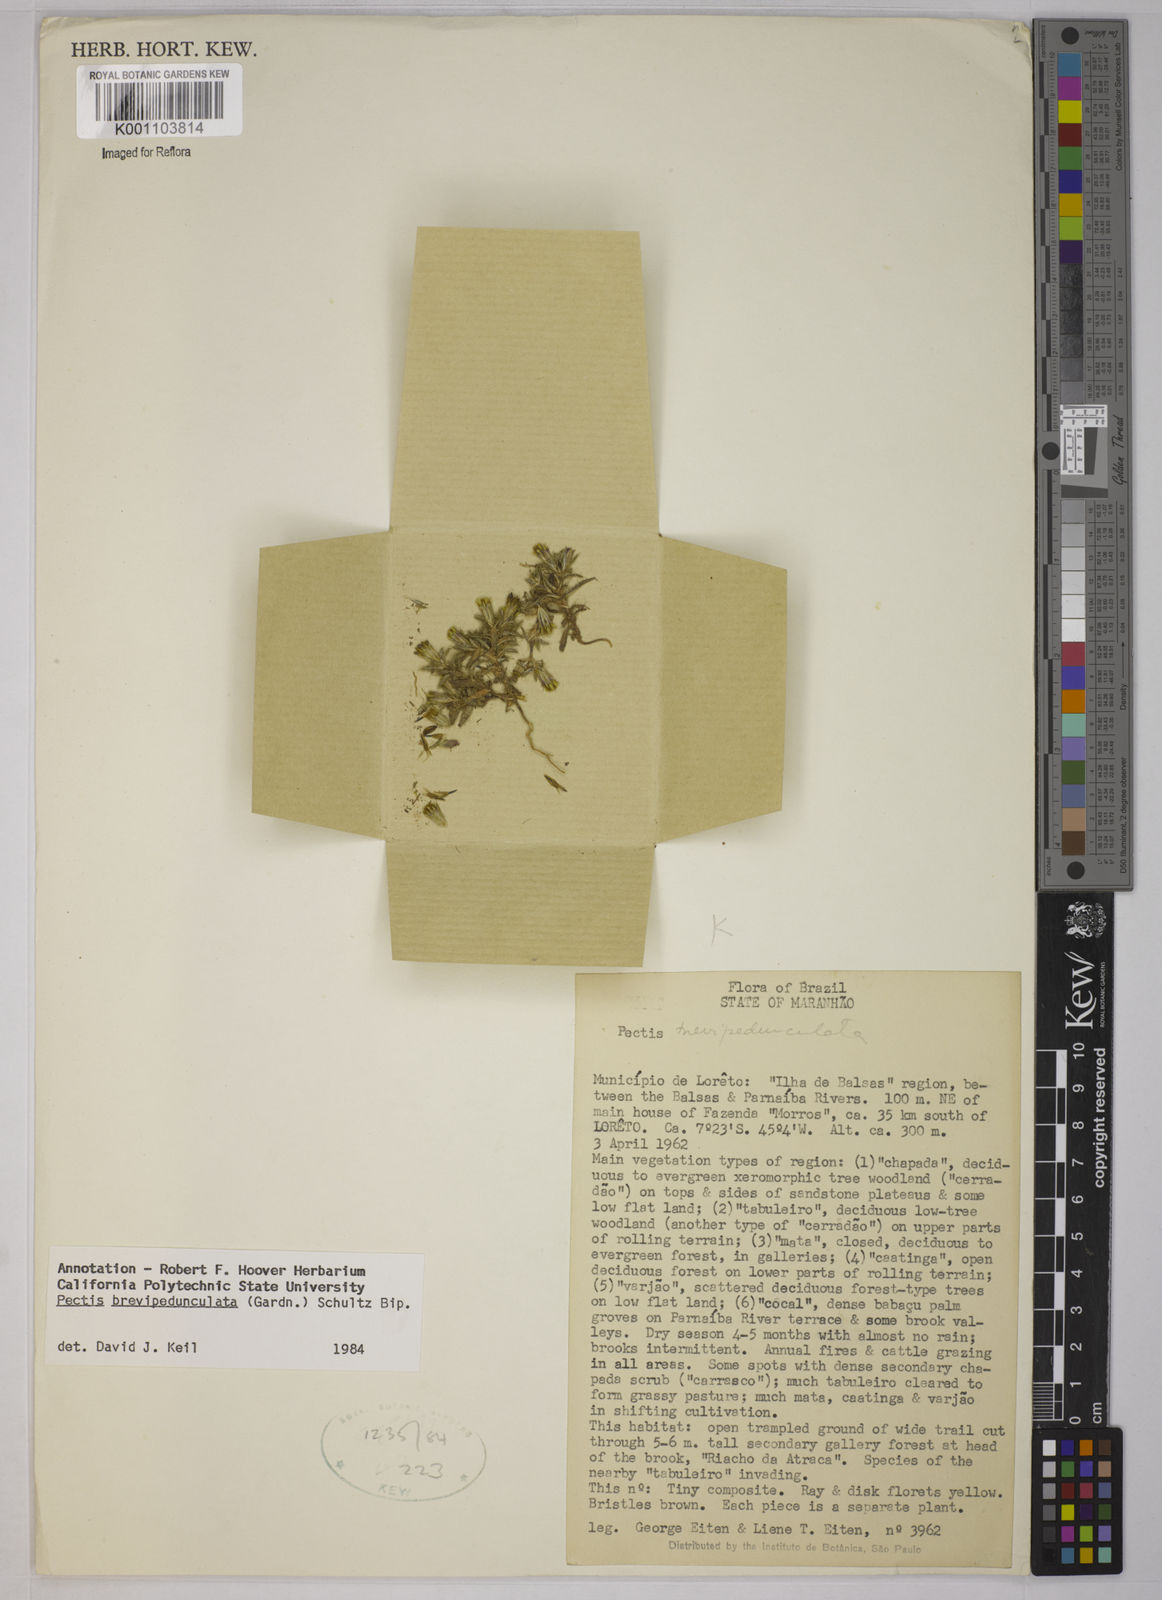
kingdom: Plantae
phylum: Tracheophyta
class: Magnoliopsida
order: Asterales
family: Asteraceae
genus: Pectis
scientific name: Pectis brevipedunculata
